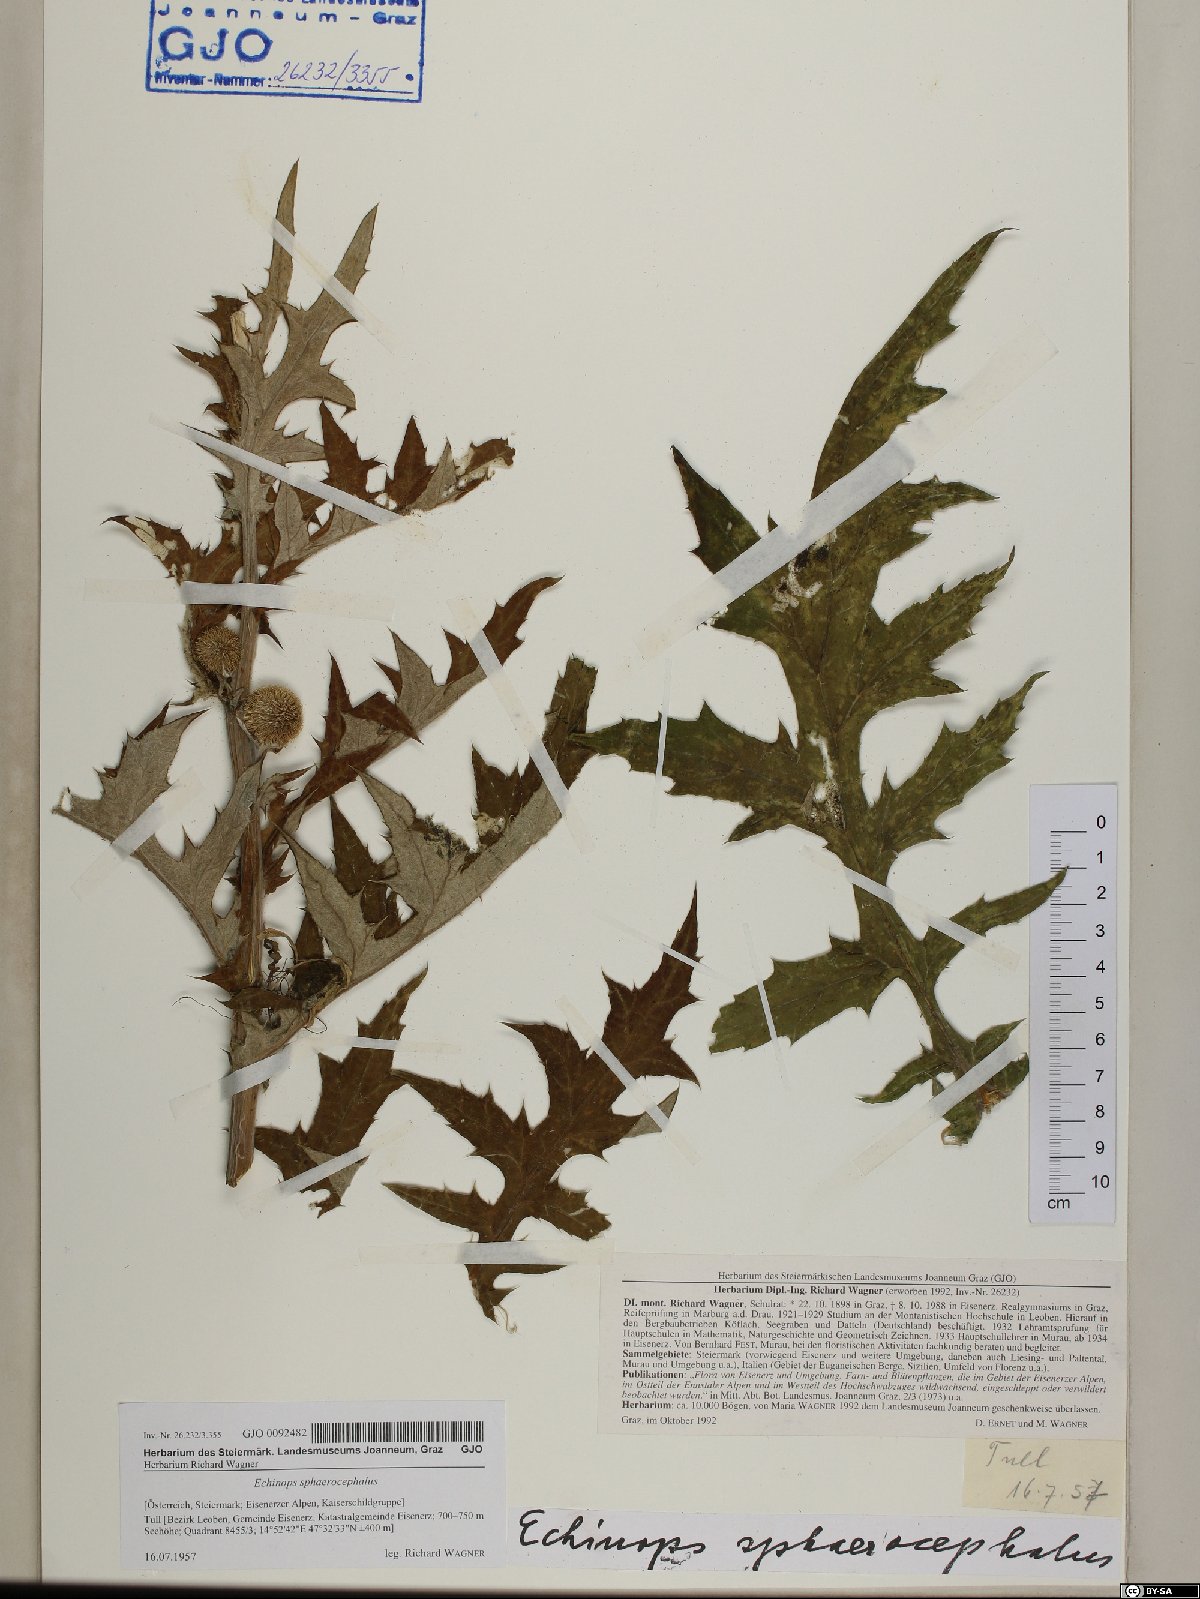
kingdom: Plantae
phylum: Tracheophyta
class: Magnoliopsida
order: Asterales
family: Asteraceae
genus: Echinops
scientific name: Echinops sphaerocephalus
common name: Glandular globe-thistle
